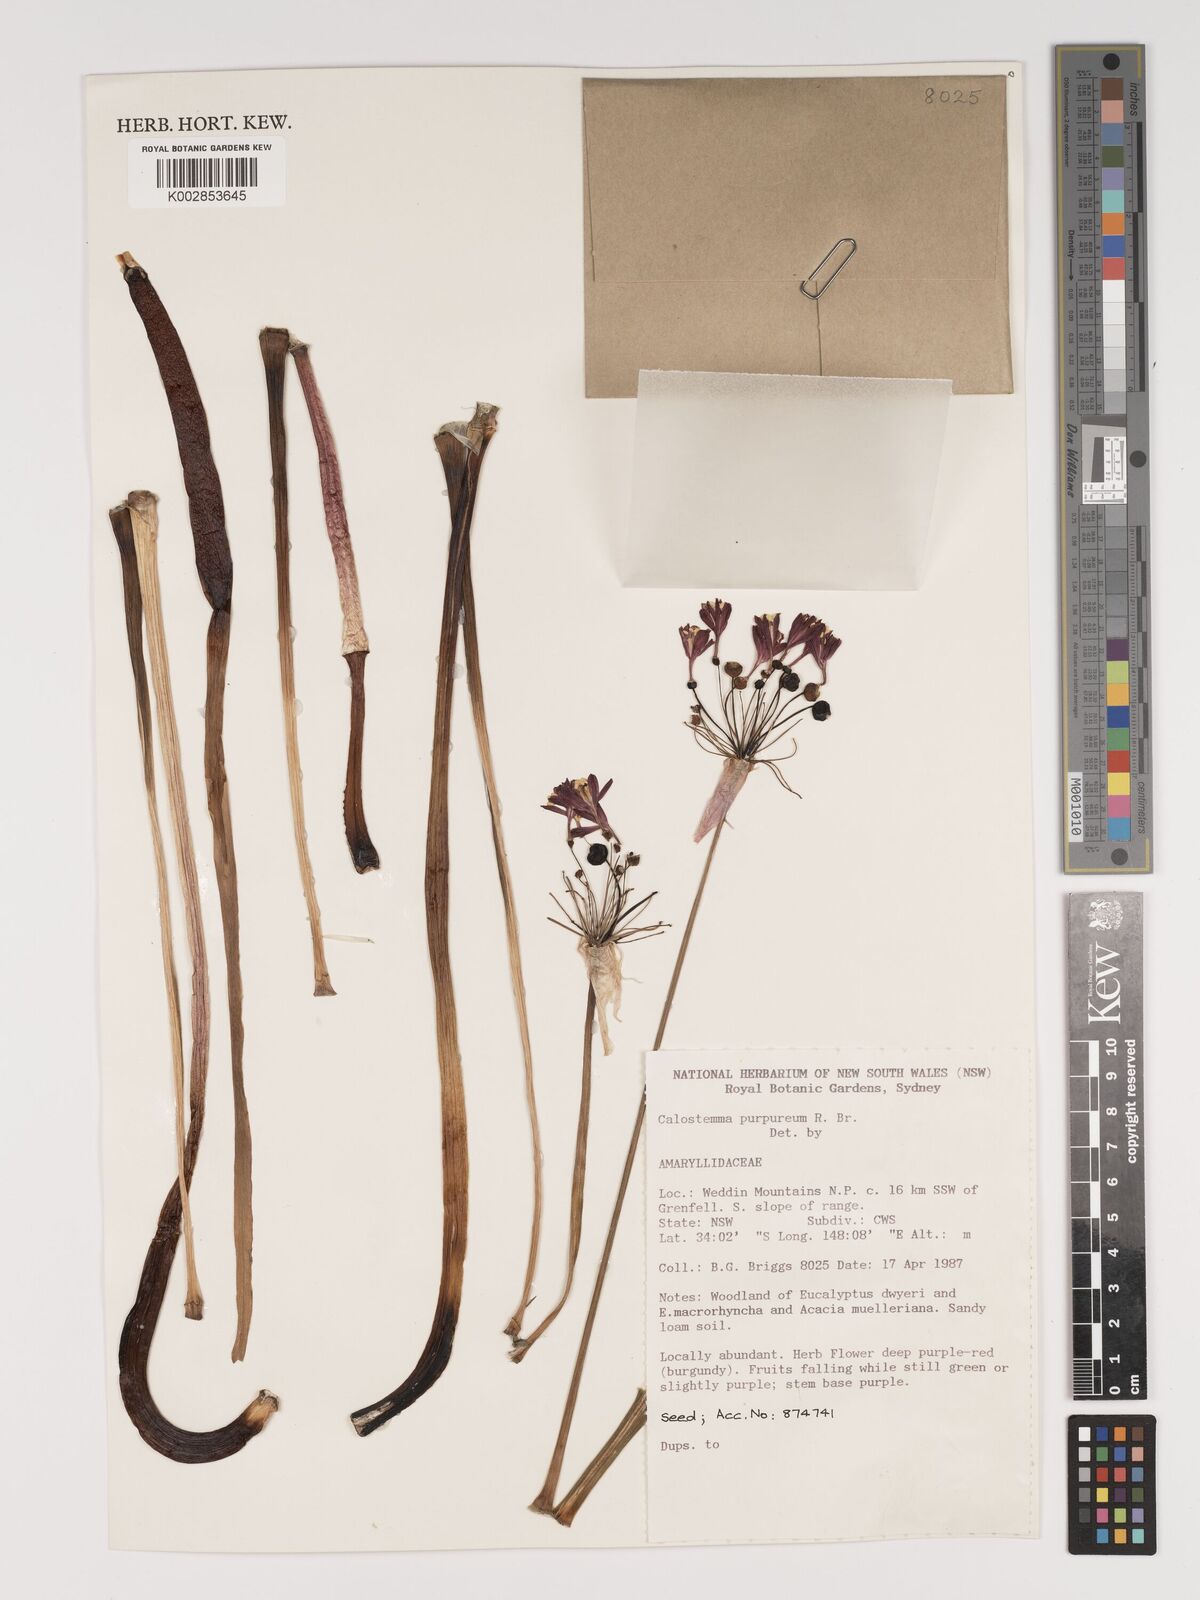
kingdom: Plantae
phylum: Tracheophyta
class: Liliopsida
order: Asparagales
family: Amaryllidaceae
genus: Calostemma
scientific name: Calostemma purpureum
